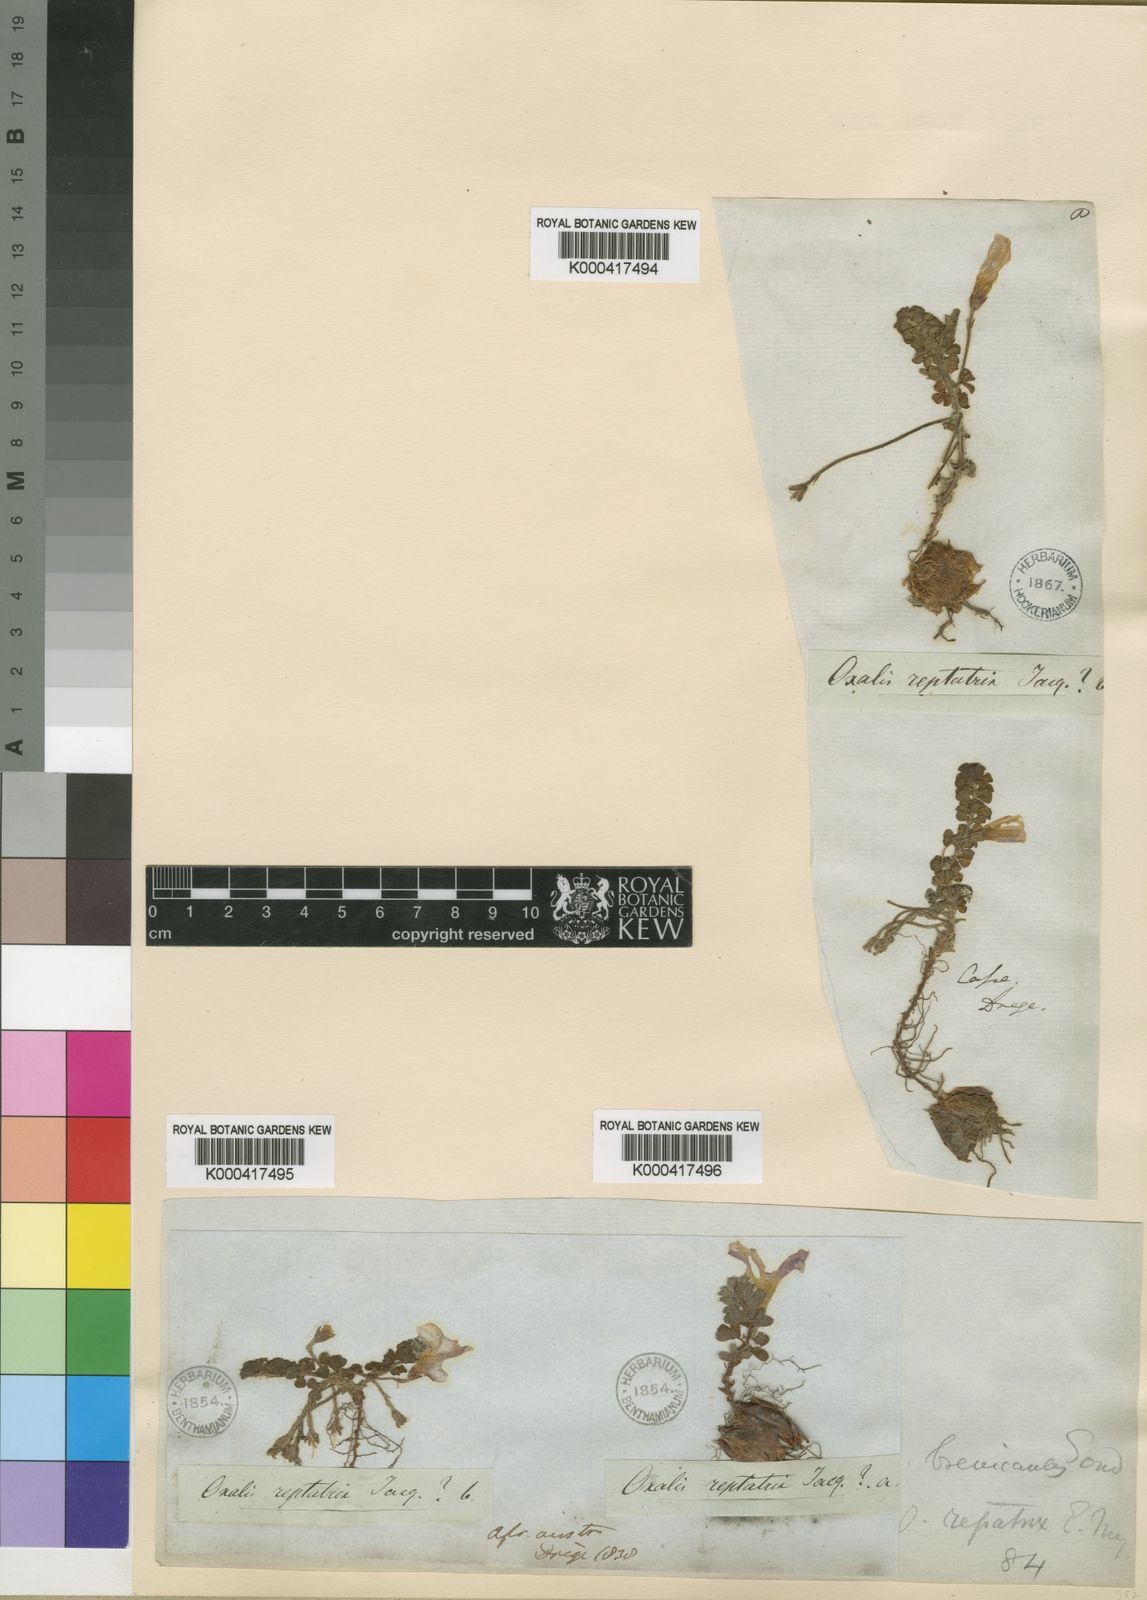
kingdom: Plantae
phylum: Tracheophyta
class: Magnoliopsida
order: Oxalidales
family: Oxalidaceae
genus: Oxalis
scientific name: Oxalis hirta
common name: Tropical woodsorrel
